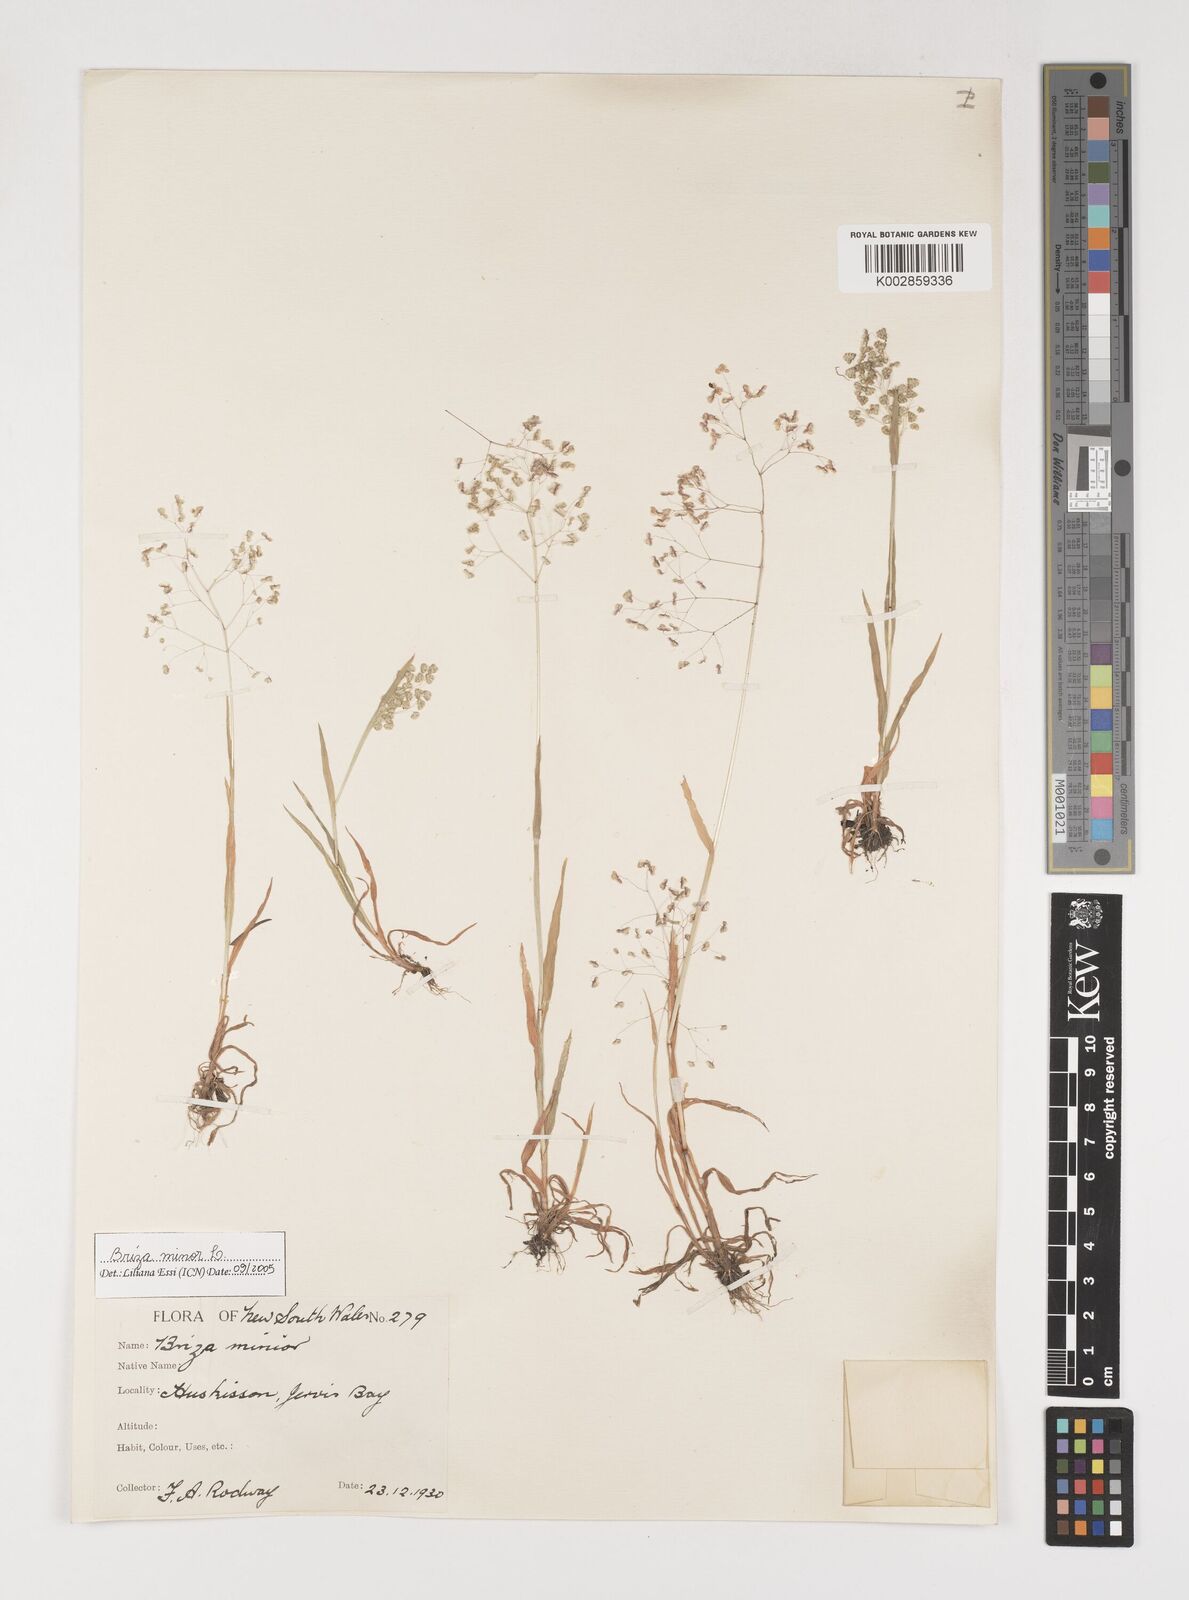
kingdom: Plantae
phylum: Tracheophyta
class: Liliopsida
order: Poales
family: Poaceae
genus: Briza
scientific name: Briza minor
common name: Lesser quaking-grass
